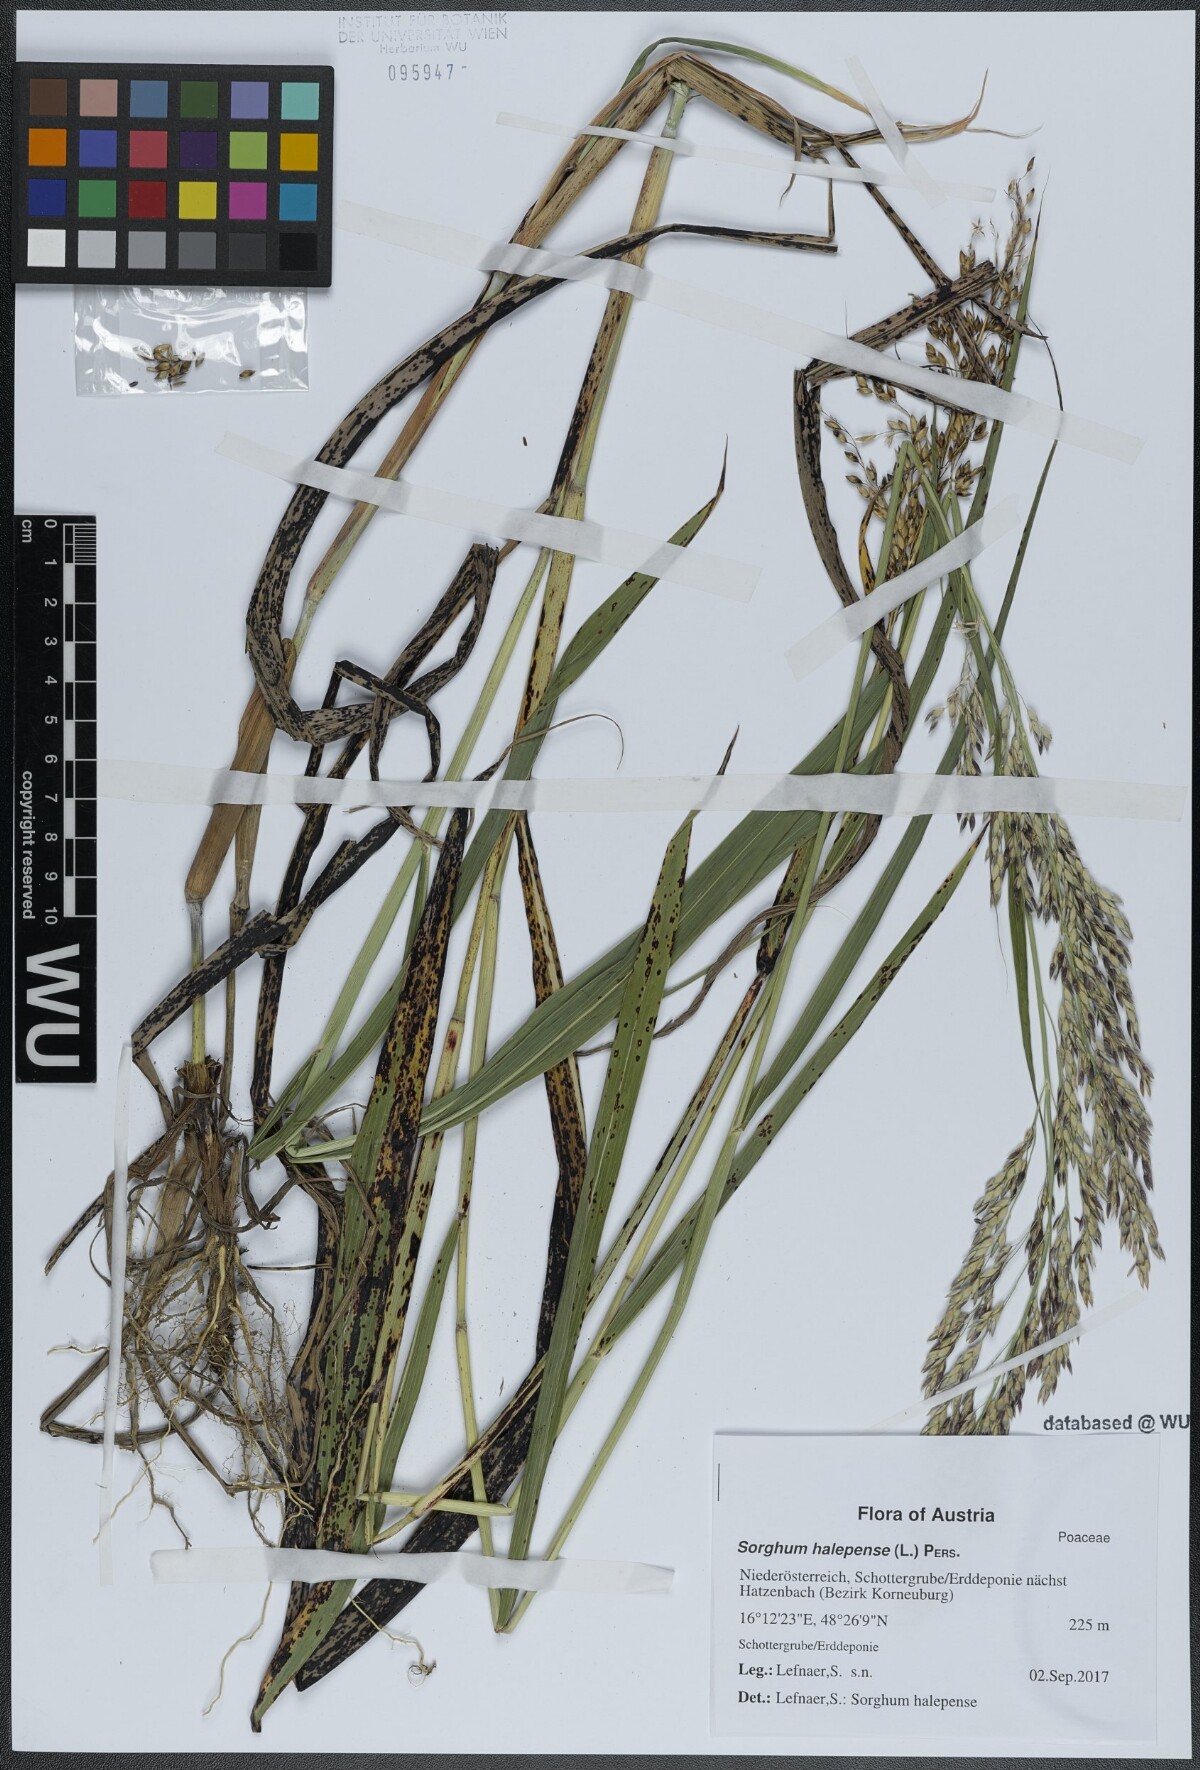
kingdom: Plantae
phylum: Tracheophyta
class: Liliopsida
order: Poales
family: Poaceae
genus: Sorghum
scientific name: Sorghum halepense
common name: Johnson-grass
